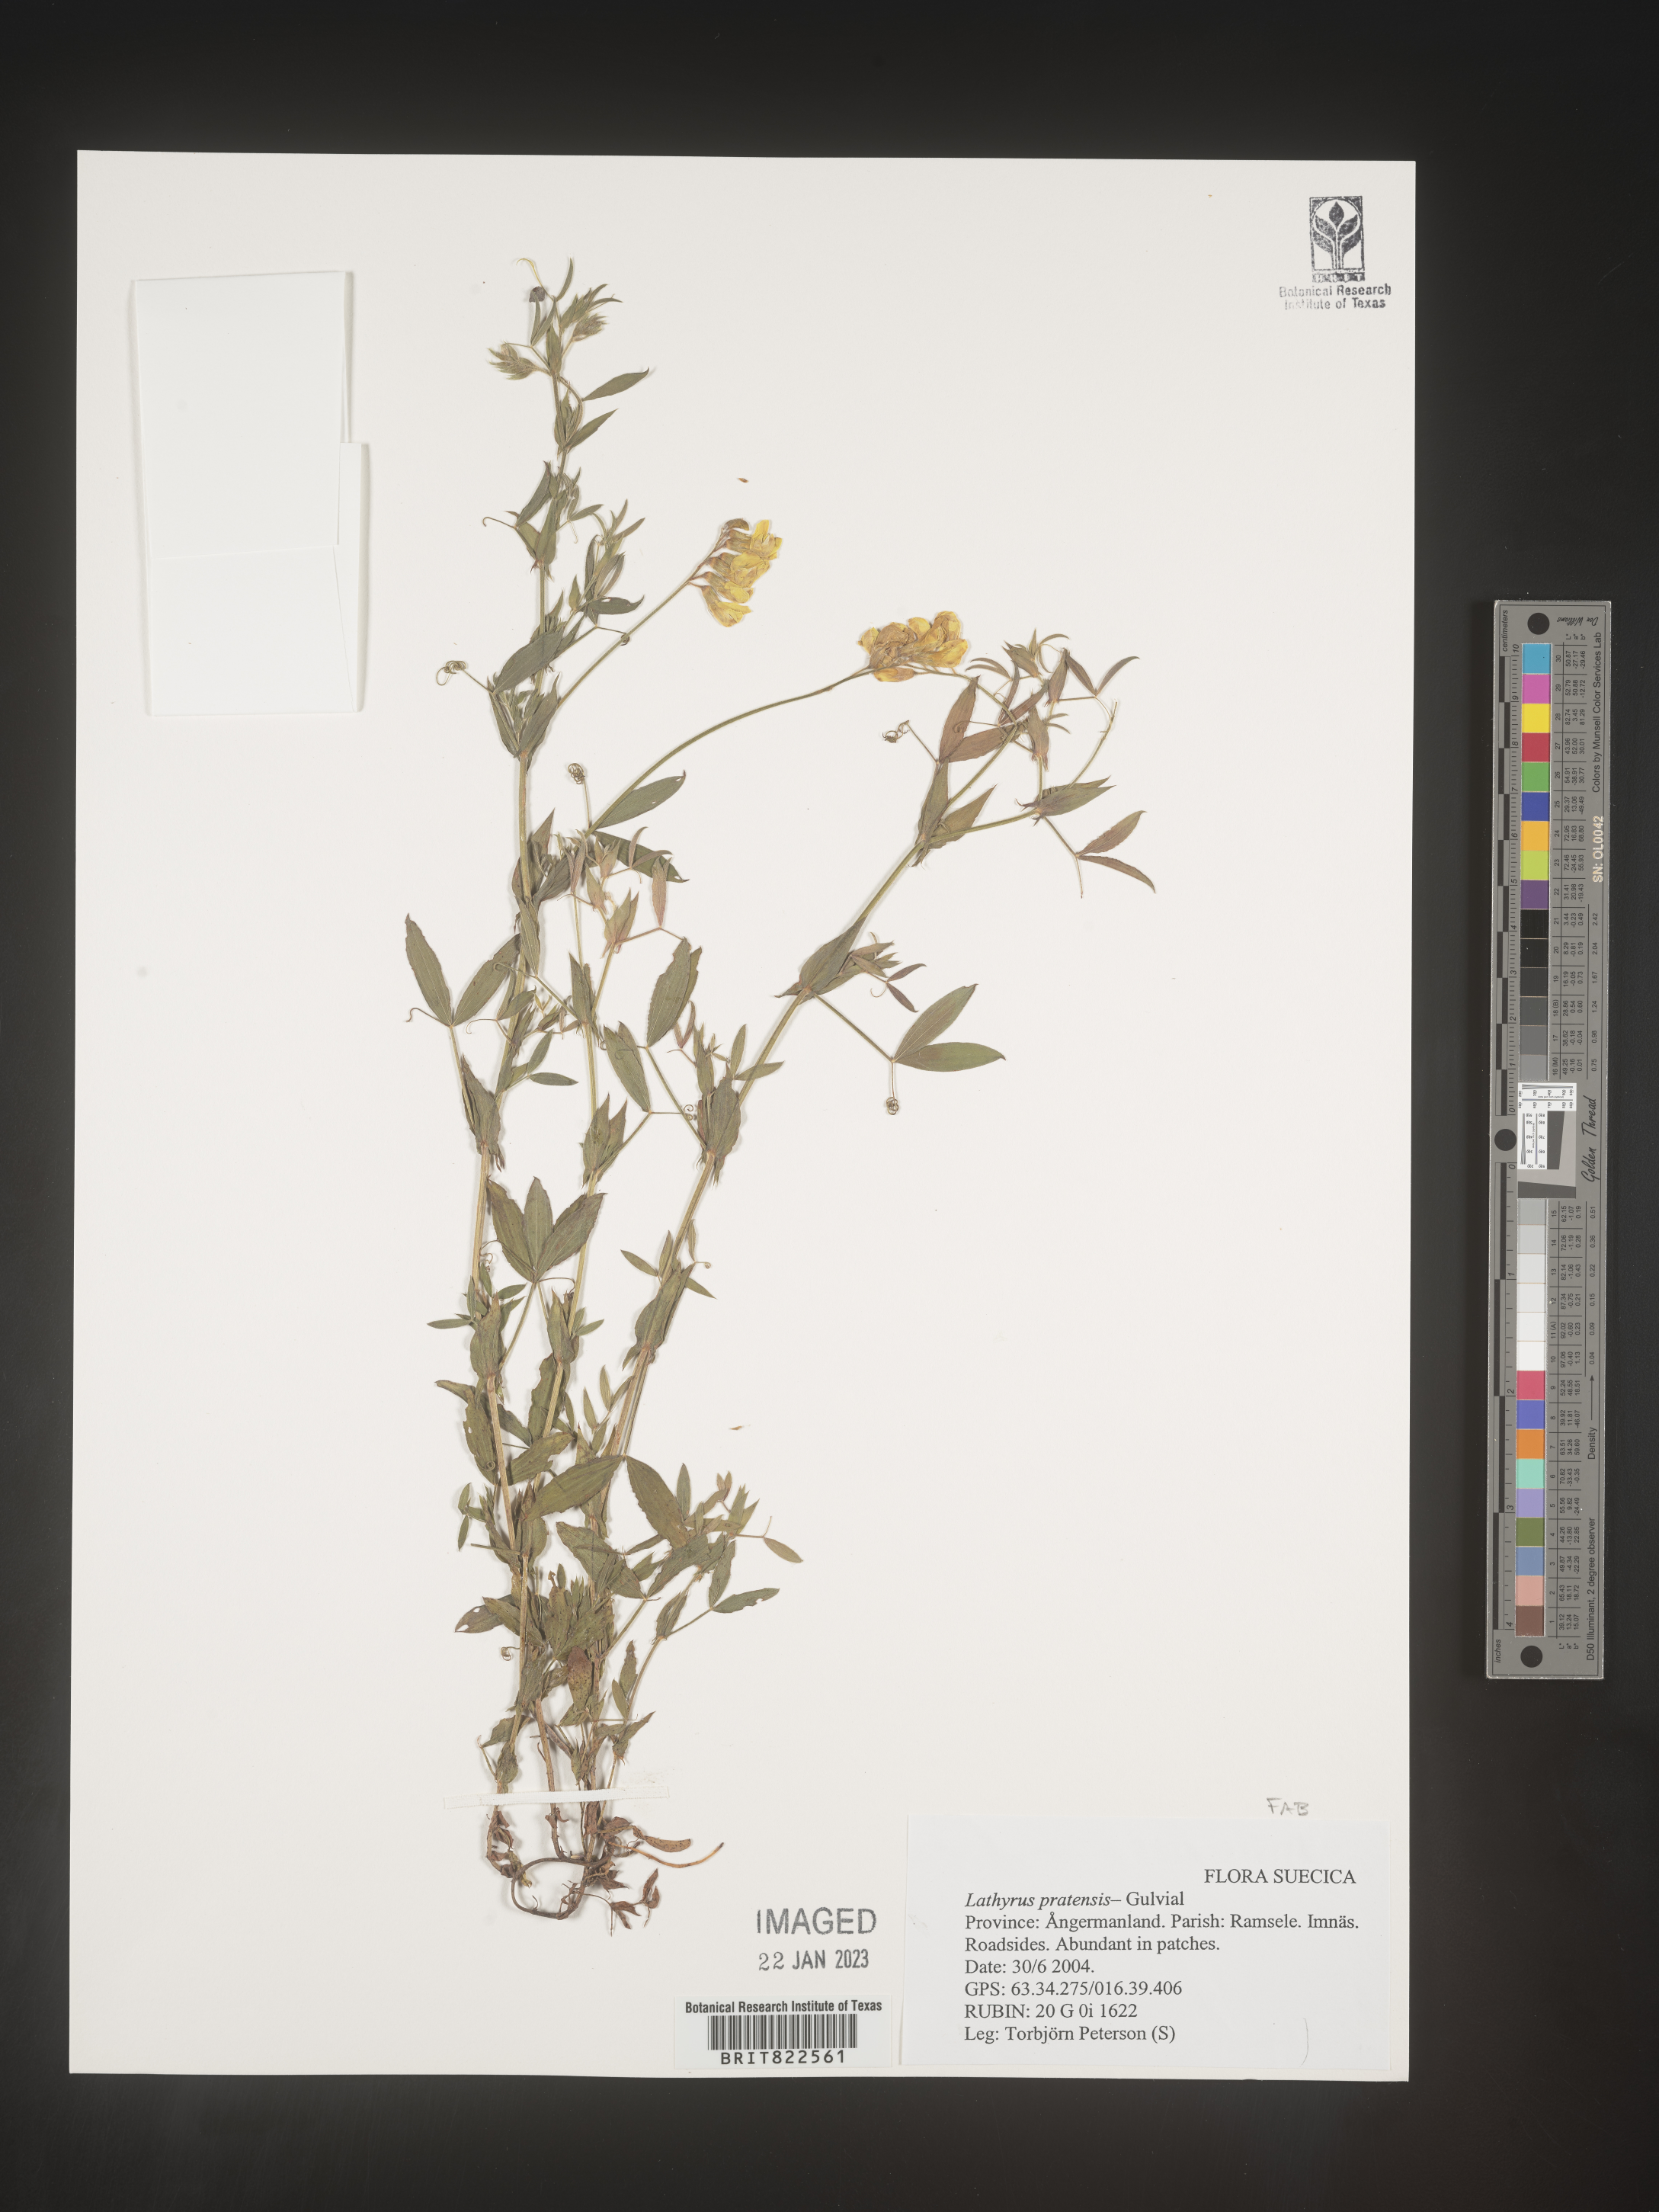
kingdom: Plantae
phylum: Tracheophyta
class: Magnoliopsida
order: Fabales
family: Fabaceae
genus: Lathyrus
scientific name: Lathyrus
